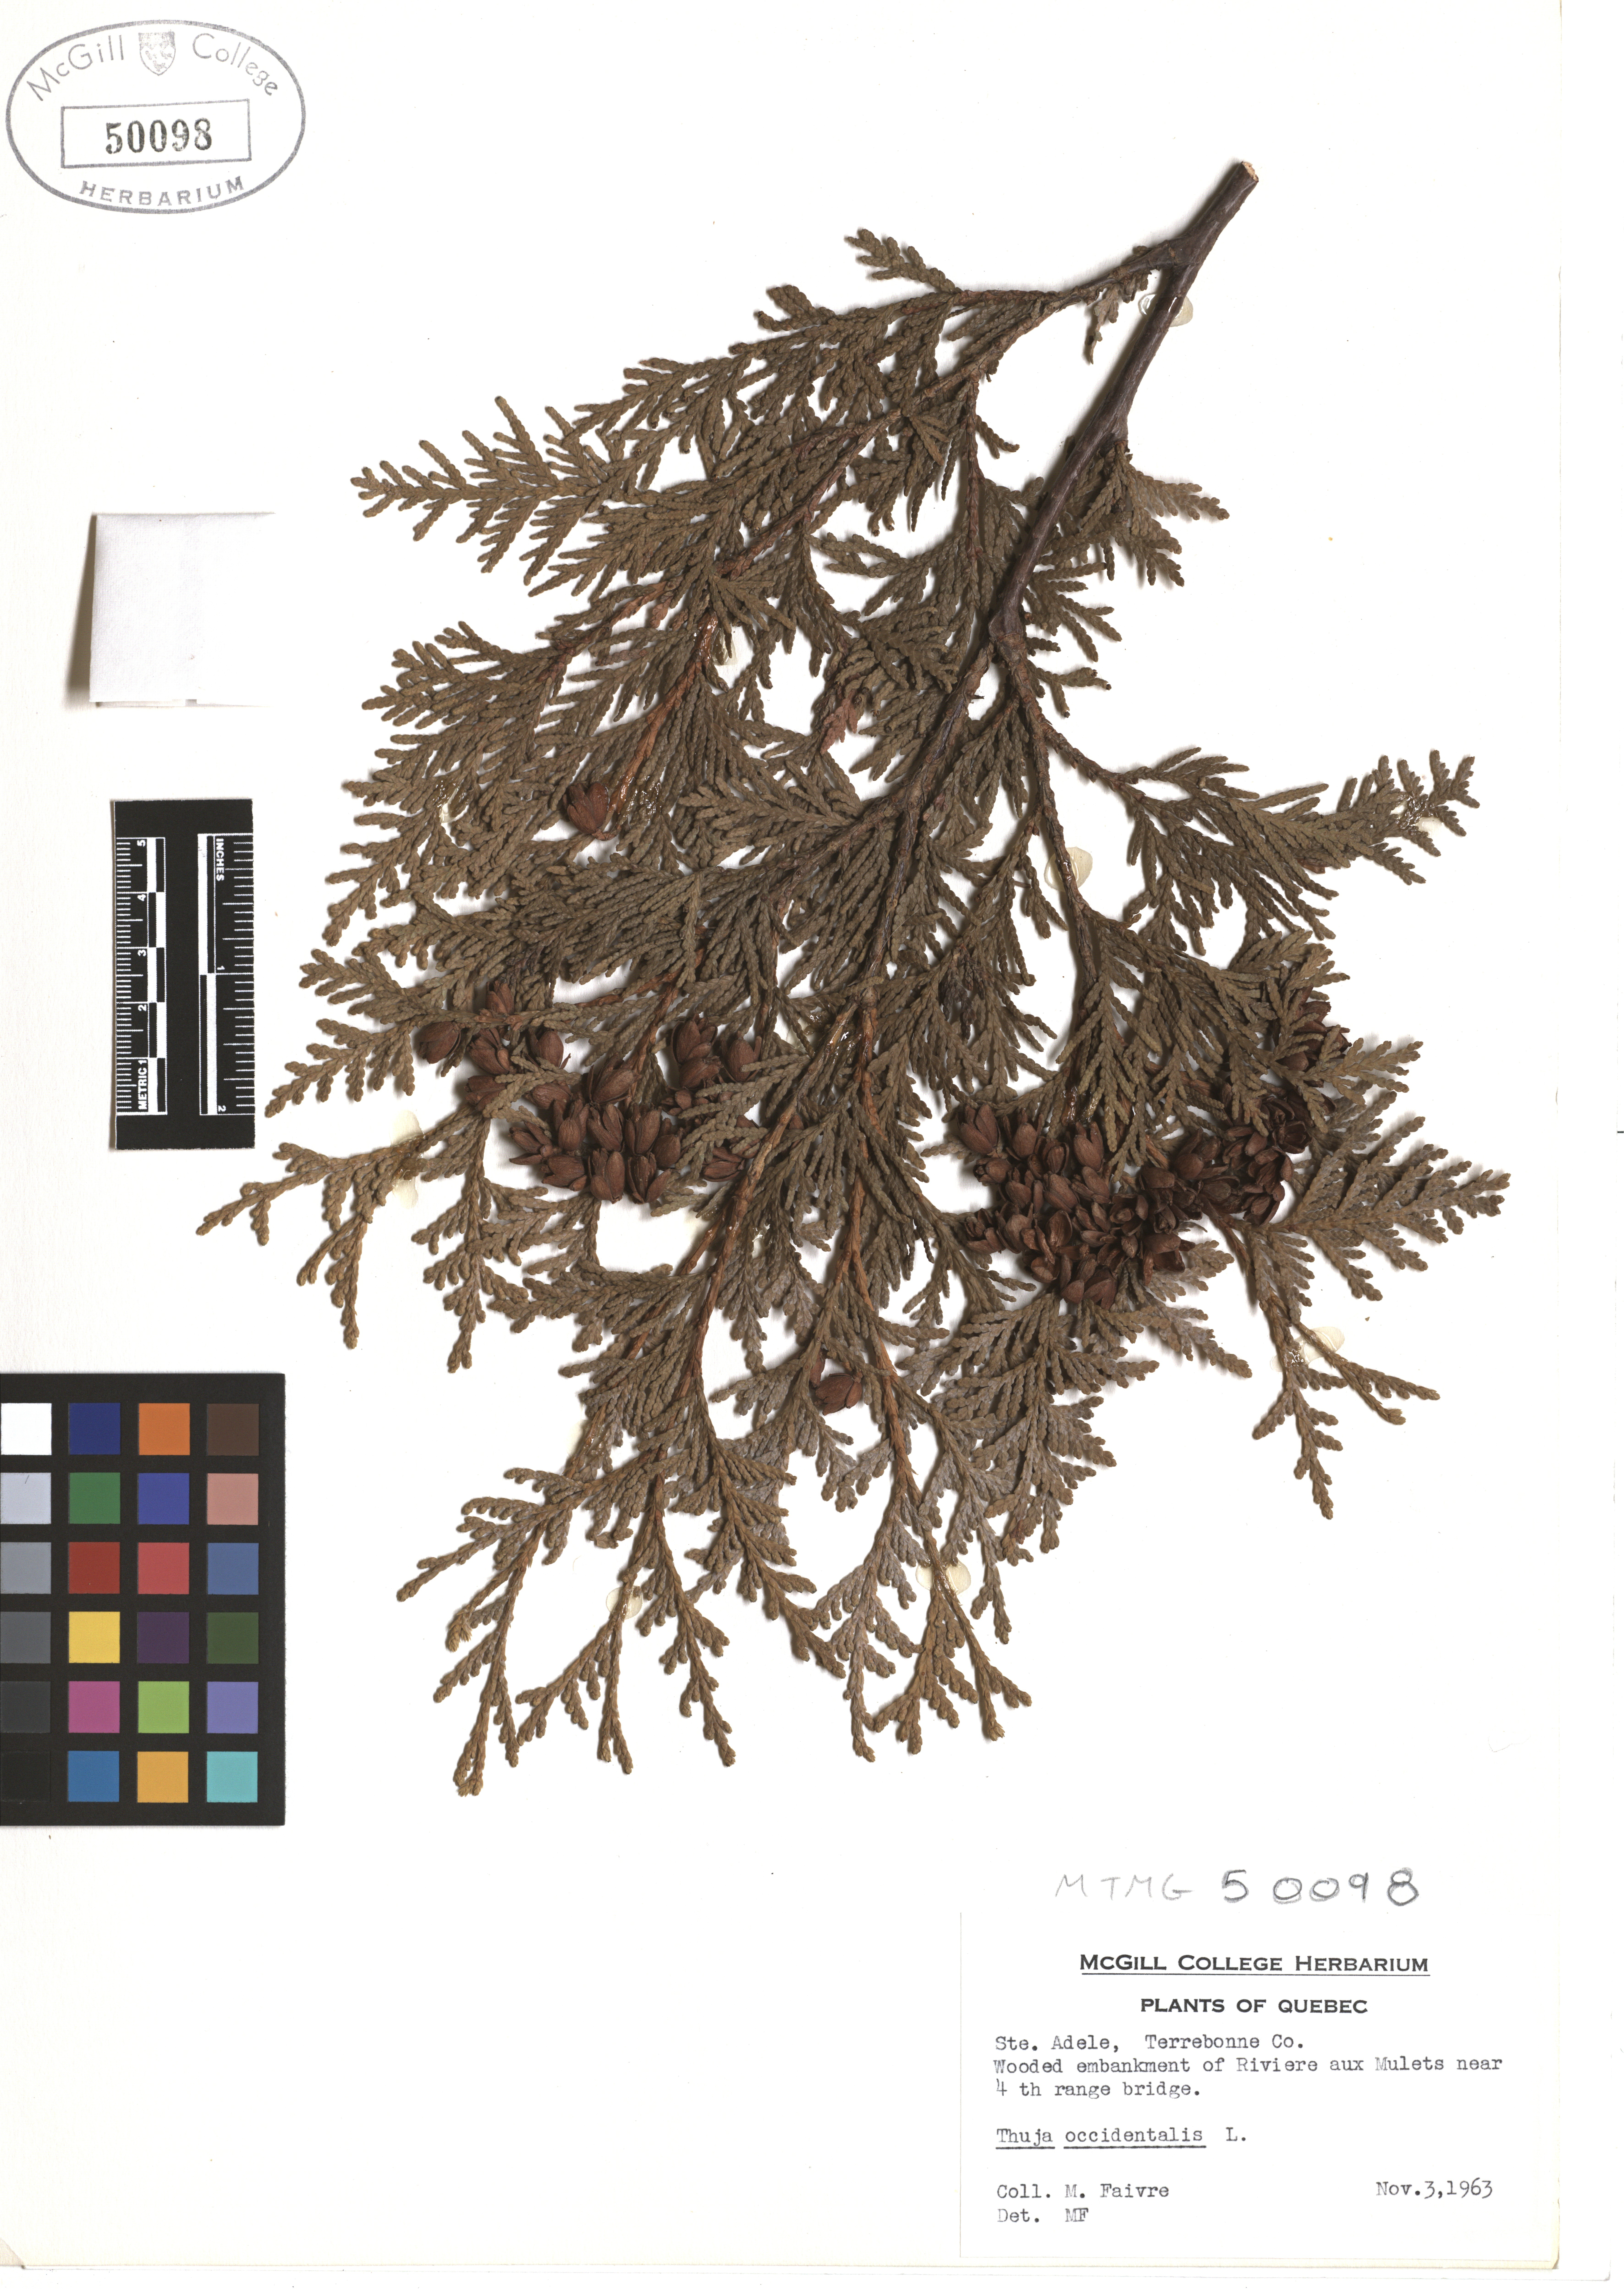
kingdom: Plantae
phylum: Tracheophyta
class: Pinopsida
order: Pinales
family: Cupressaceae
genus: Thuja
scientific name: Thuja occidentalis
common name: Northern white-cedar
